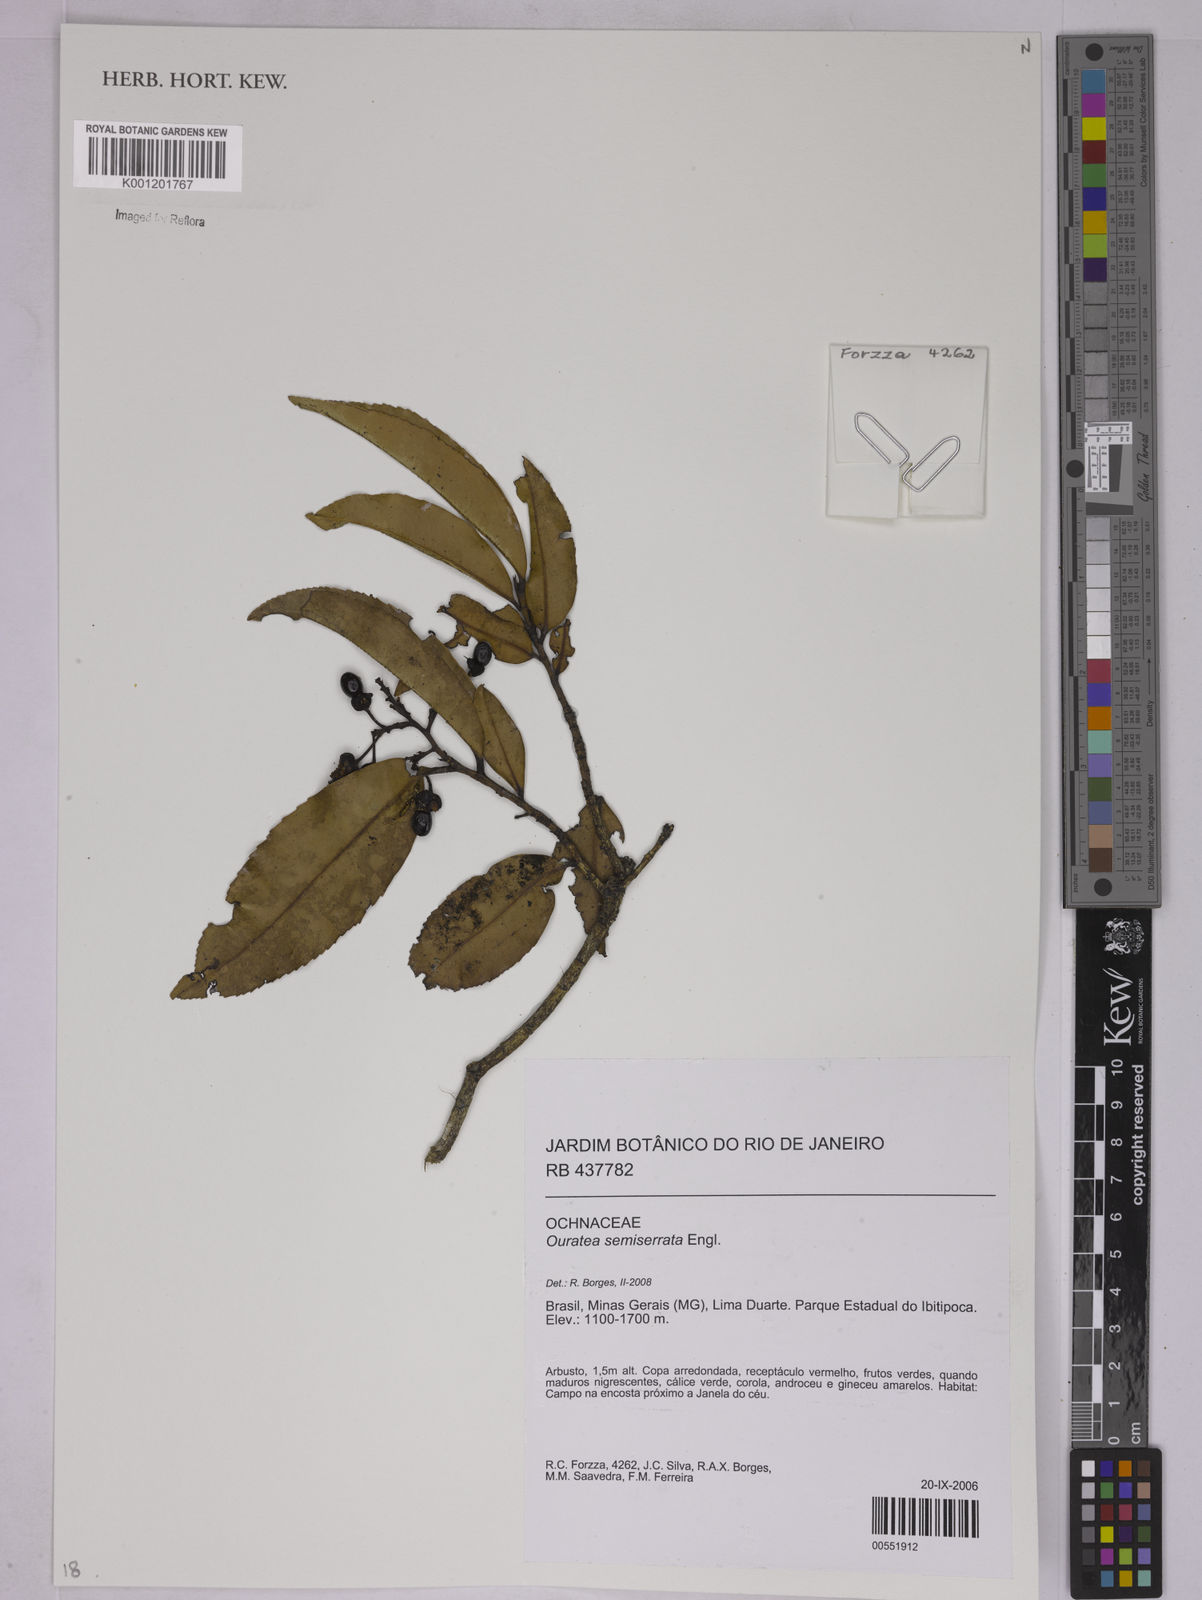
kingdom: Plantae
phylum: Tracheophyta
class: Magnoliopsida
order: Malpighiales
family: Ochnaceae
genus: Ouratea
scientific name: Ouratea semiserrata
